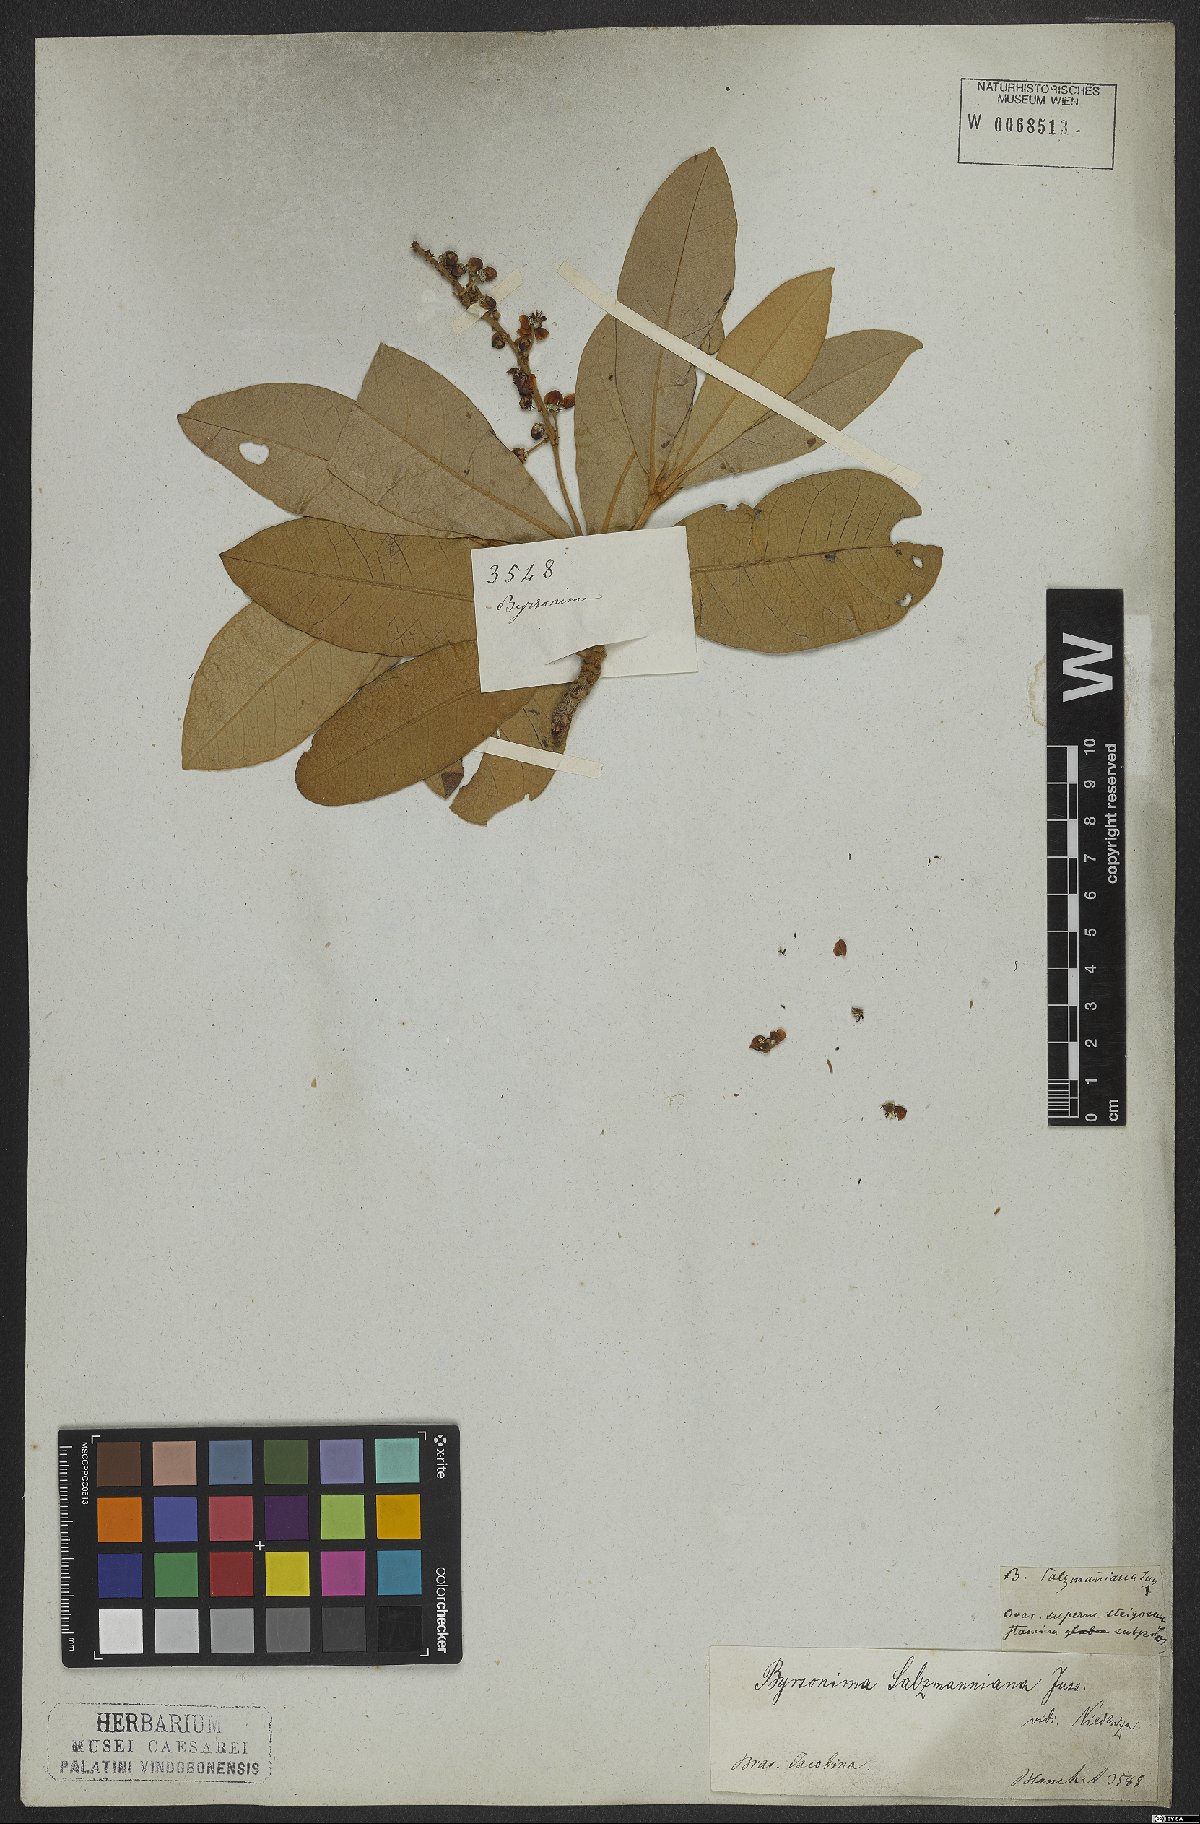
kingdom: Plantae
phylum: Tracheophyta
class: Magnoliopsida
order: Malpighiales
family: Malpighiaceae
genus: Byrsonima
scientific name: Byrsonima salzmanniana
